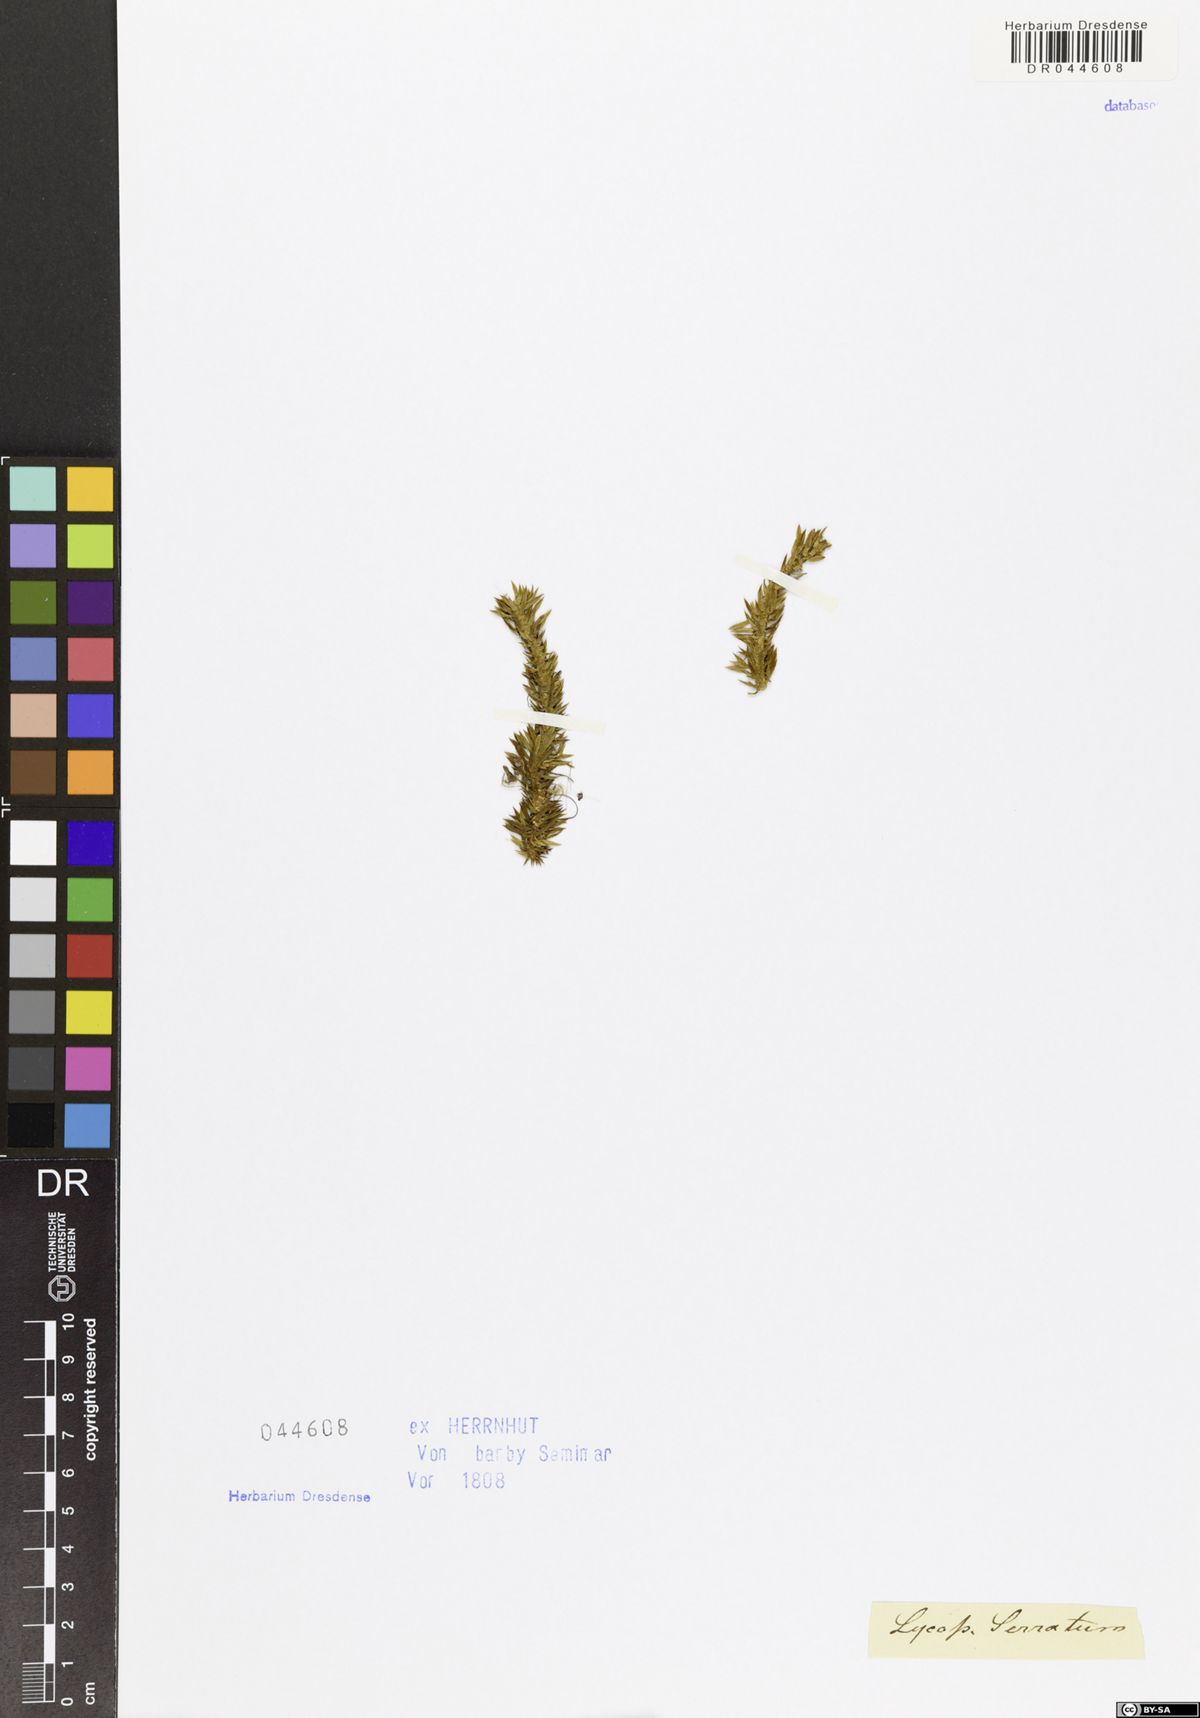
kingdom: Plantae
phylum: Tracheophyta
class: Lycopodiopsida
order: Lycopodiales
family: Lycopodiaceae
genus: Huperzia
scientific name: Huperzia selago
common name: Northern firmoss
